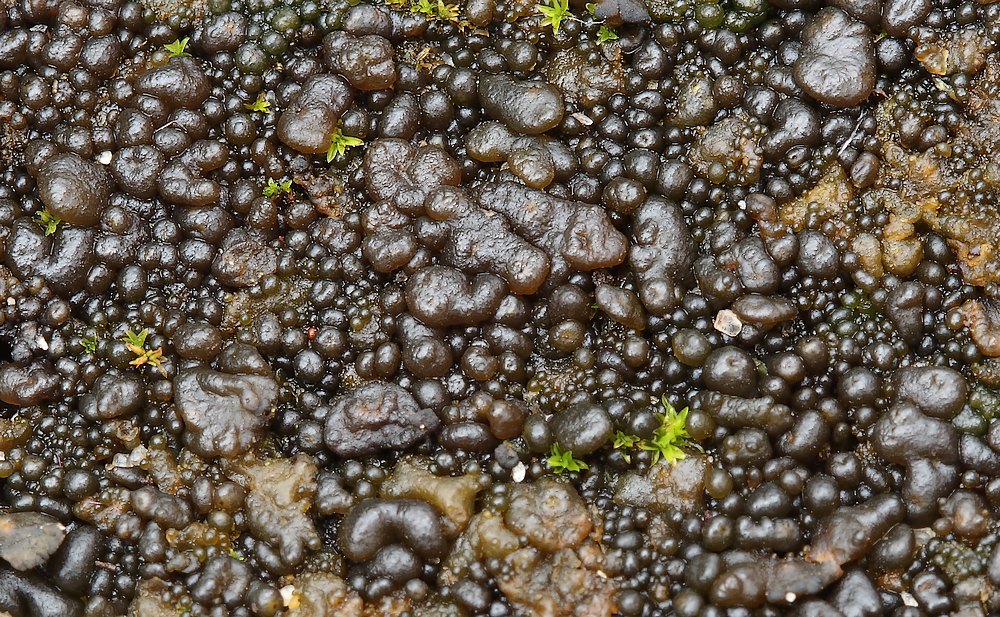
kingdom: Fungi
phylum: Ascomycota
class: Lecanoromycetes
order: Peltigerales
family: Collemataceae
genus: Enchylium
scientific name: Enchylium tenax
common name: tyk bævrelav
